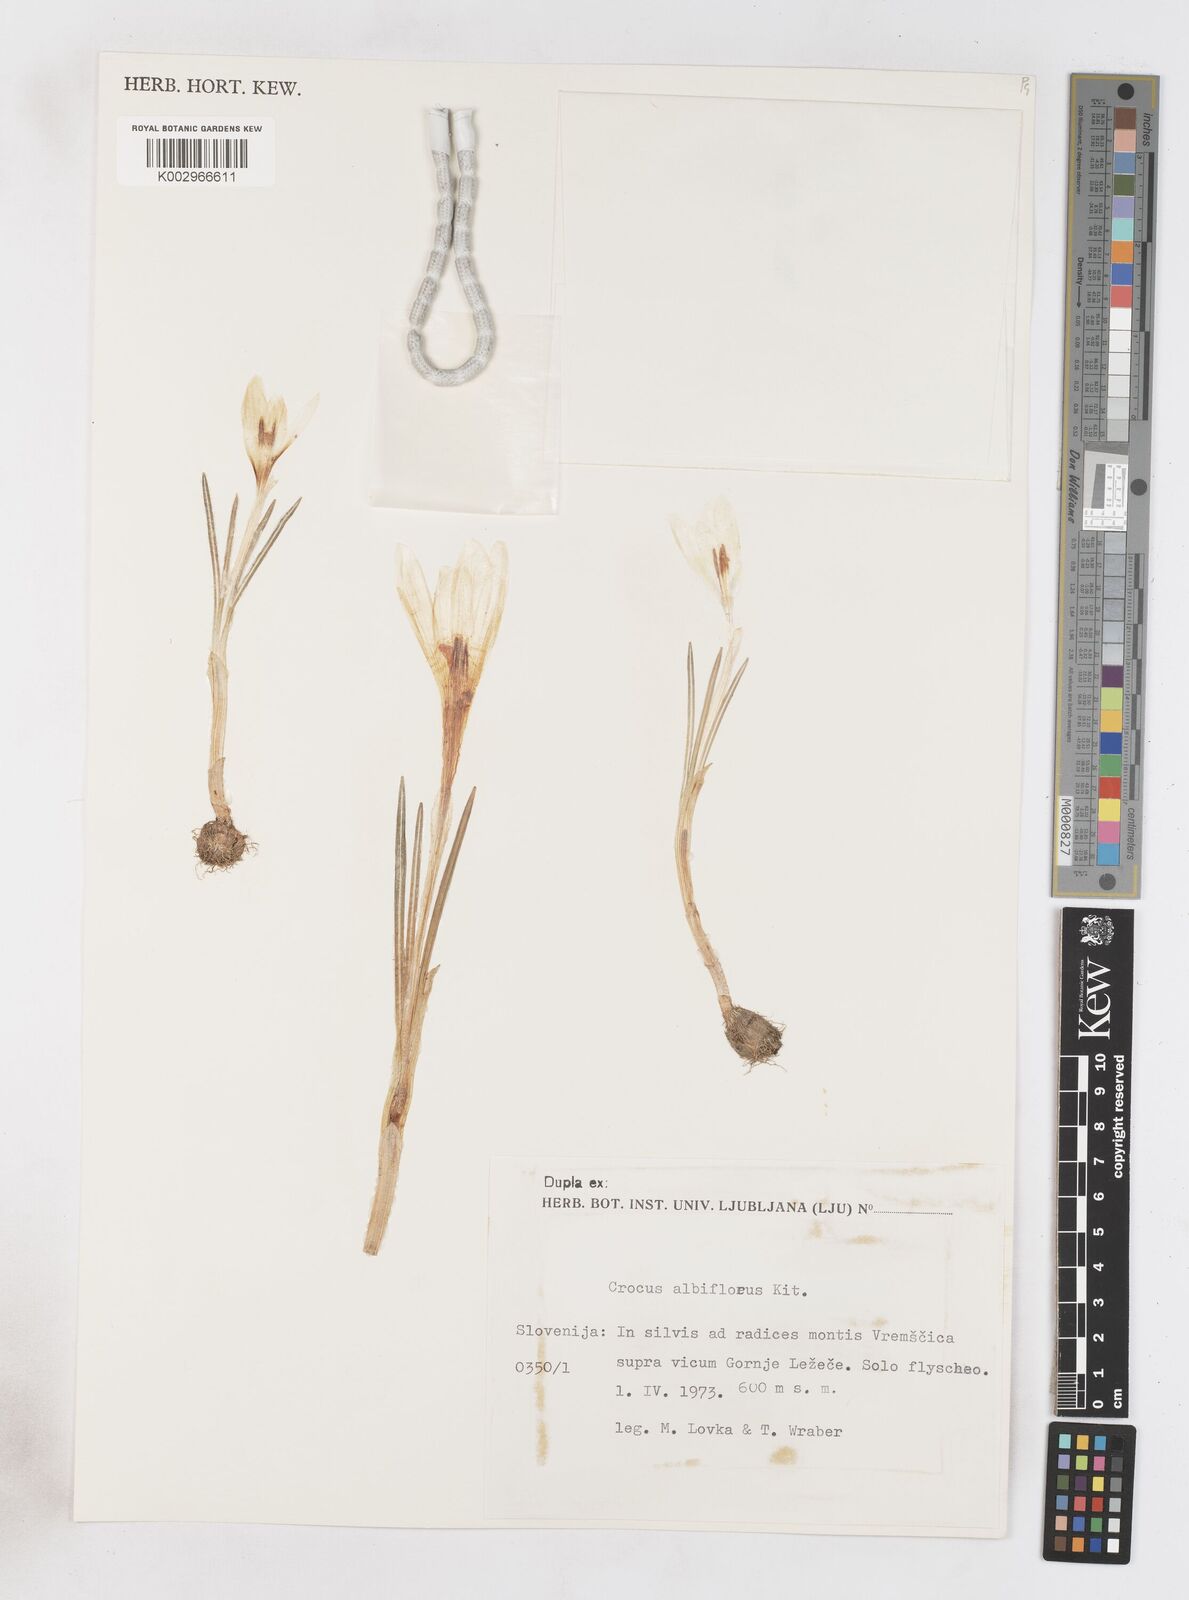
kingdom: Plantae
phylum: Tracheophyta
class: Liliopsida
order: Asparagales
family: Iridaceae
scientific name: Iridaceae
